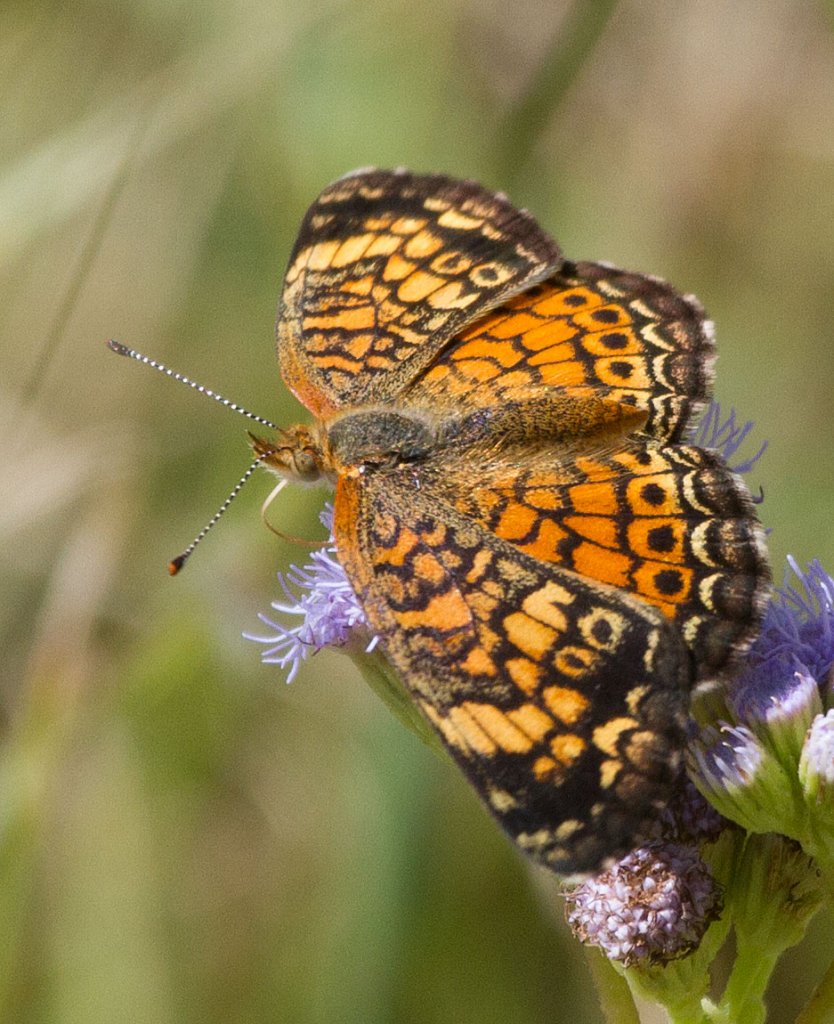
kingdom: Animalia
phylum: Arthropoda
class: Insecta
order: Lepidoptera
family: Nymphalidae
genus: Phyciodes
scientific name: Phyciodes tharos
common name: Pearl Crescent
